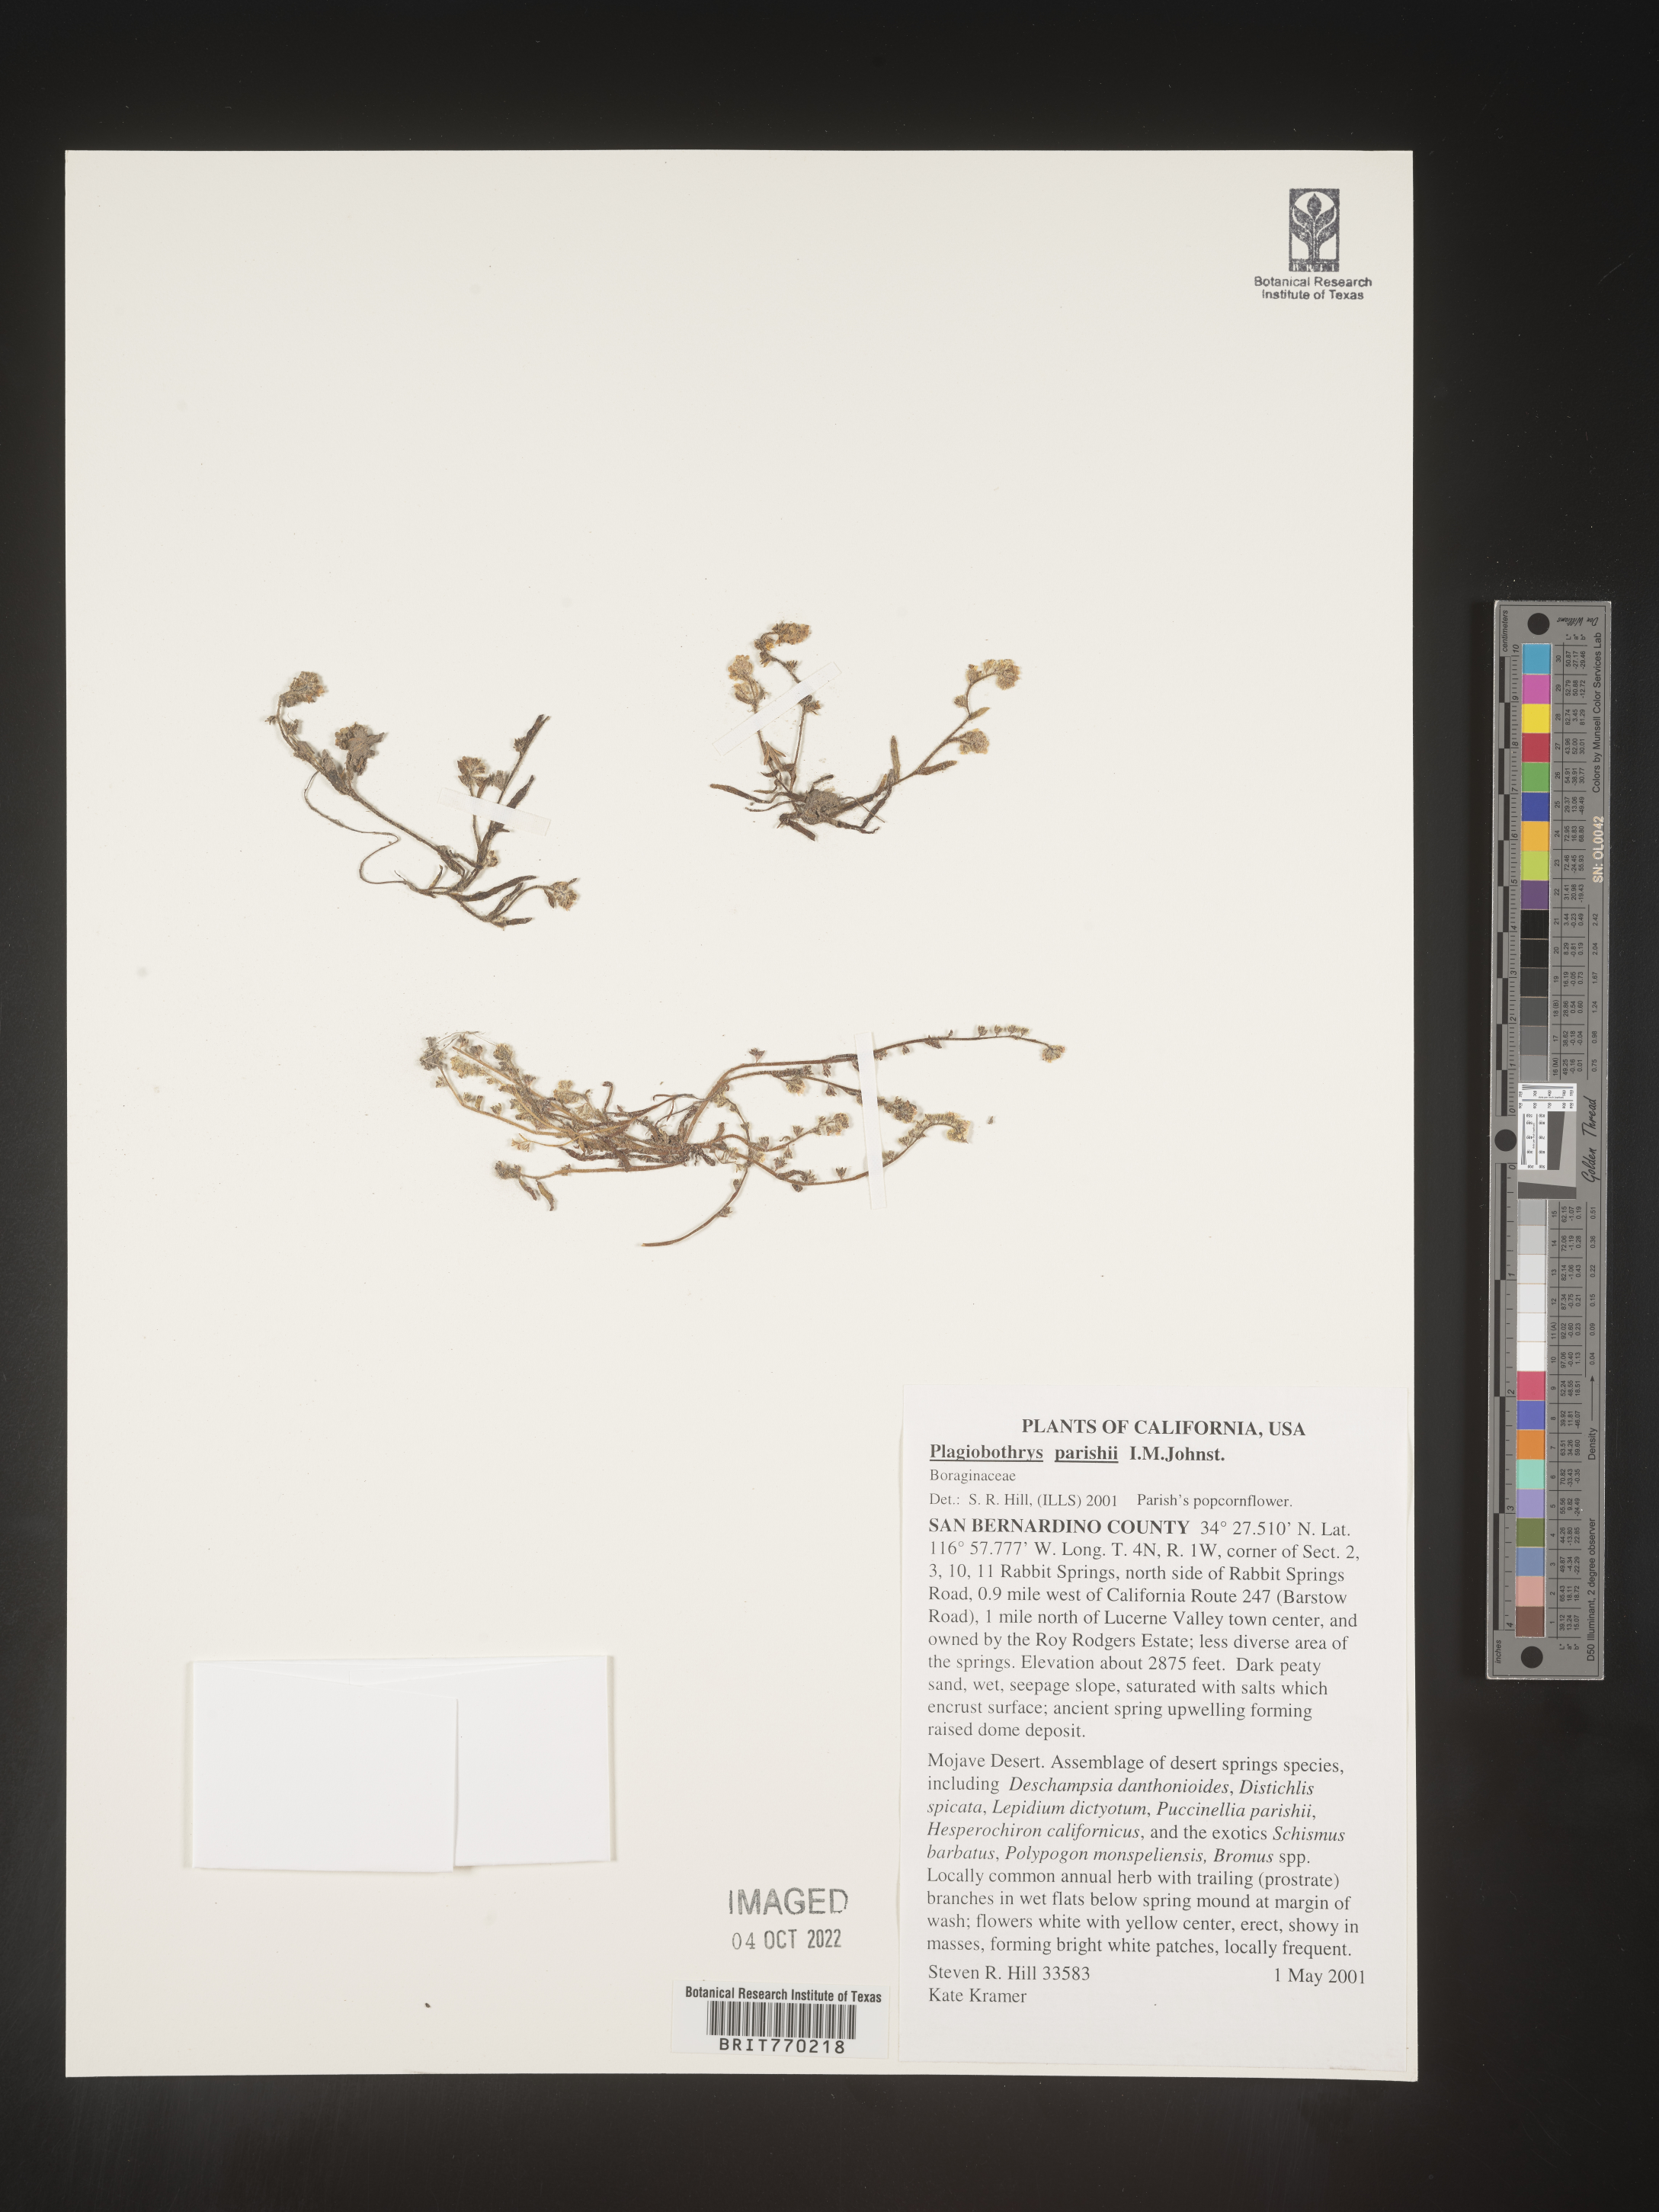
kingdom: Plantae
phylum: Tracheophyta
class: Magnoliopsida
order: Boraginales
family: Boraginaceae
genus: Plagiobothrys
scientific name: Plagiobothrys
